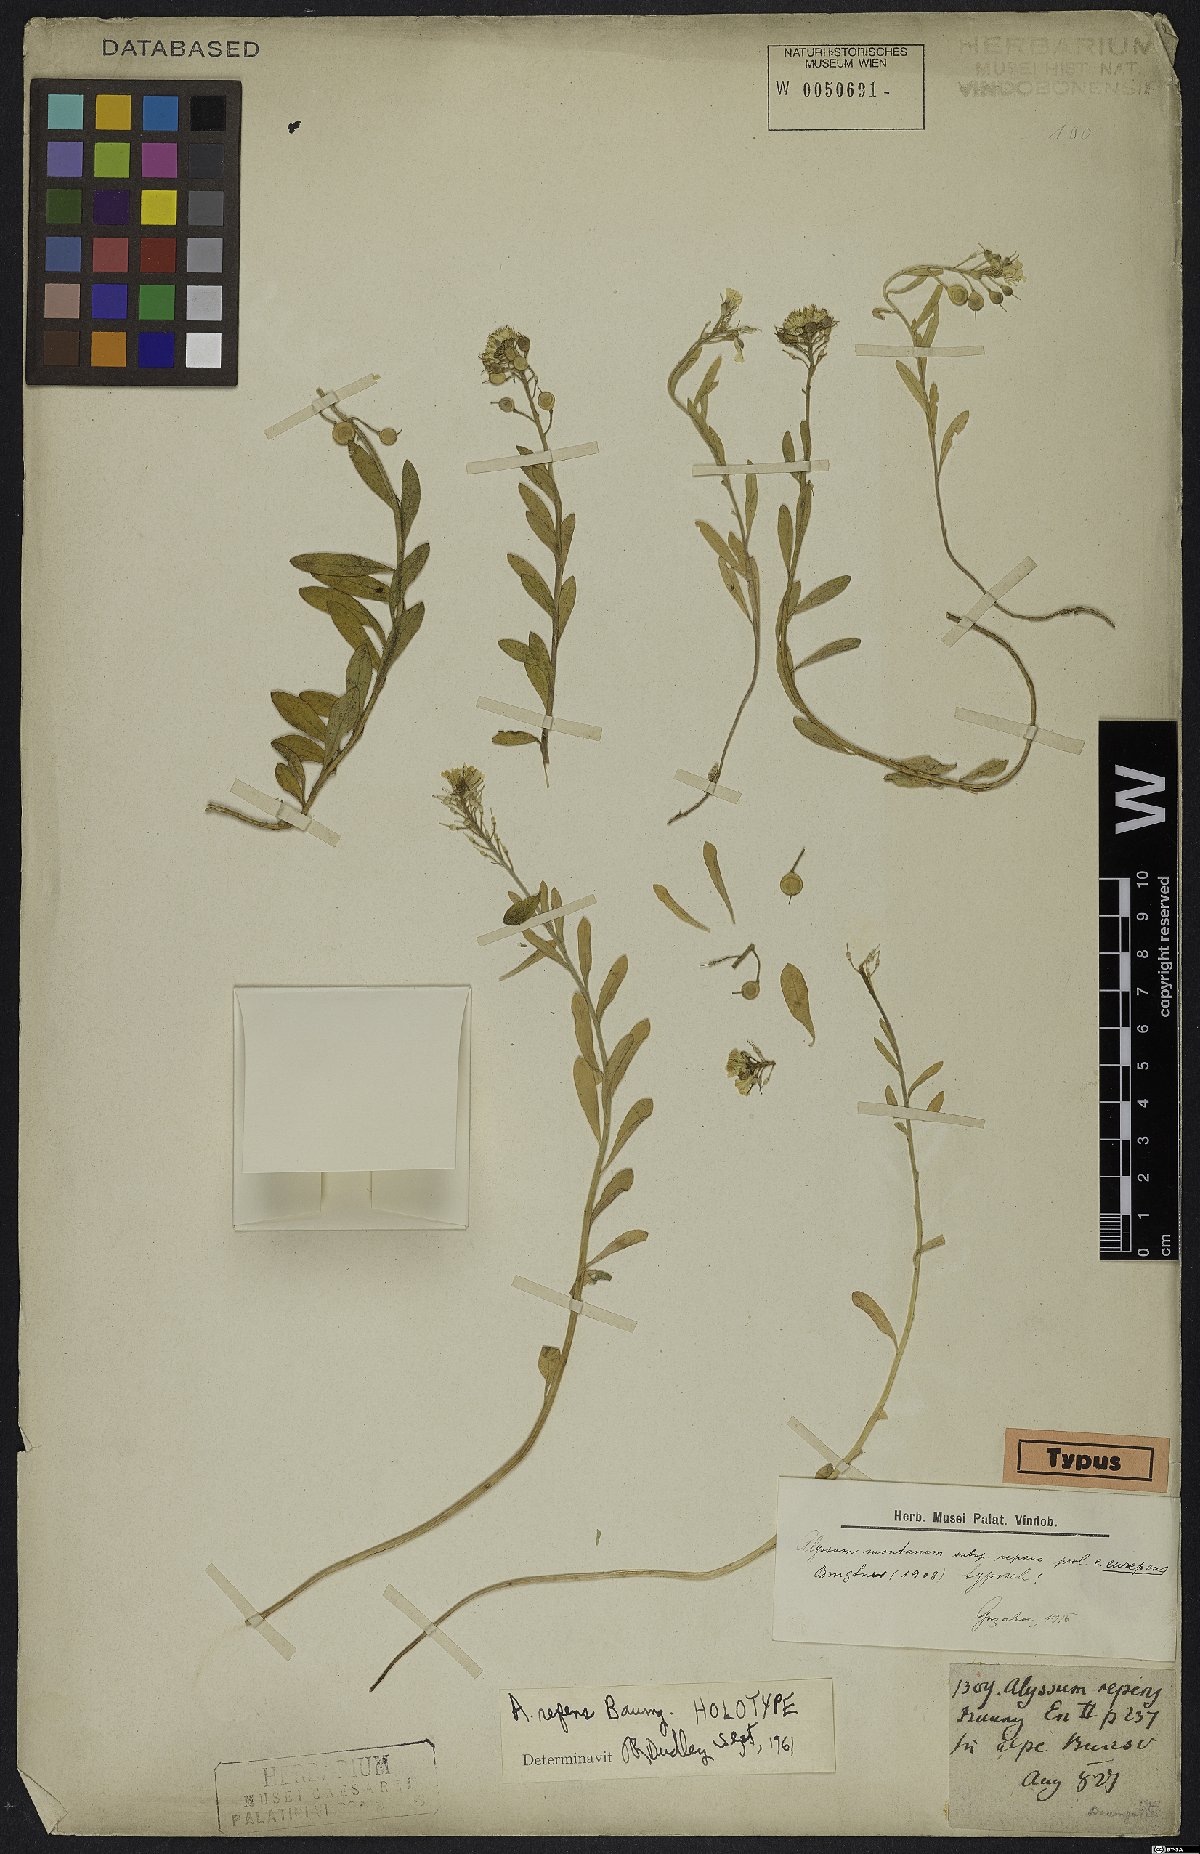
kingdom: Plantae
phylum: Tracheophyta
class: Magnoliopsida
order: Brassicales
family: Brassicaceae
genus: Alyssum
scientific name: Alyssum repens
